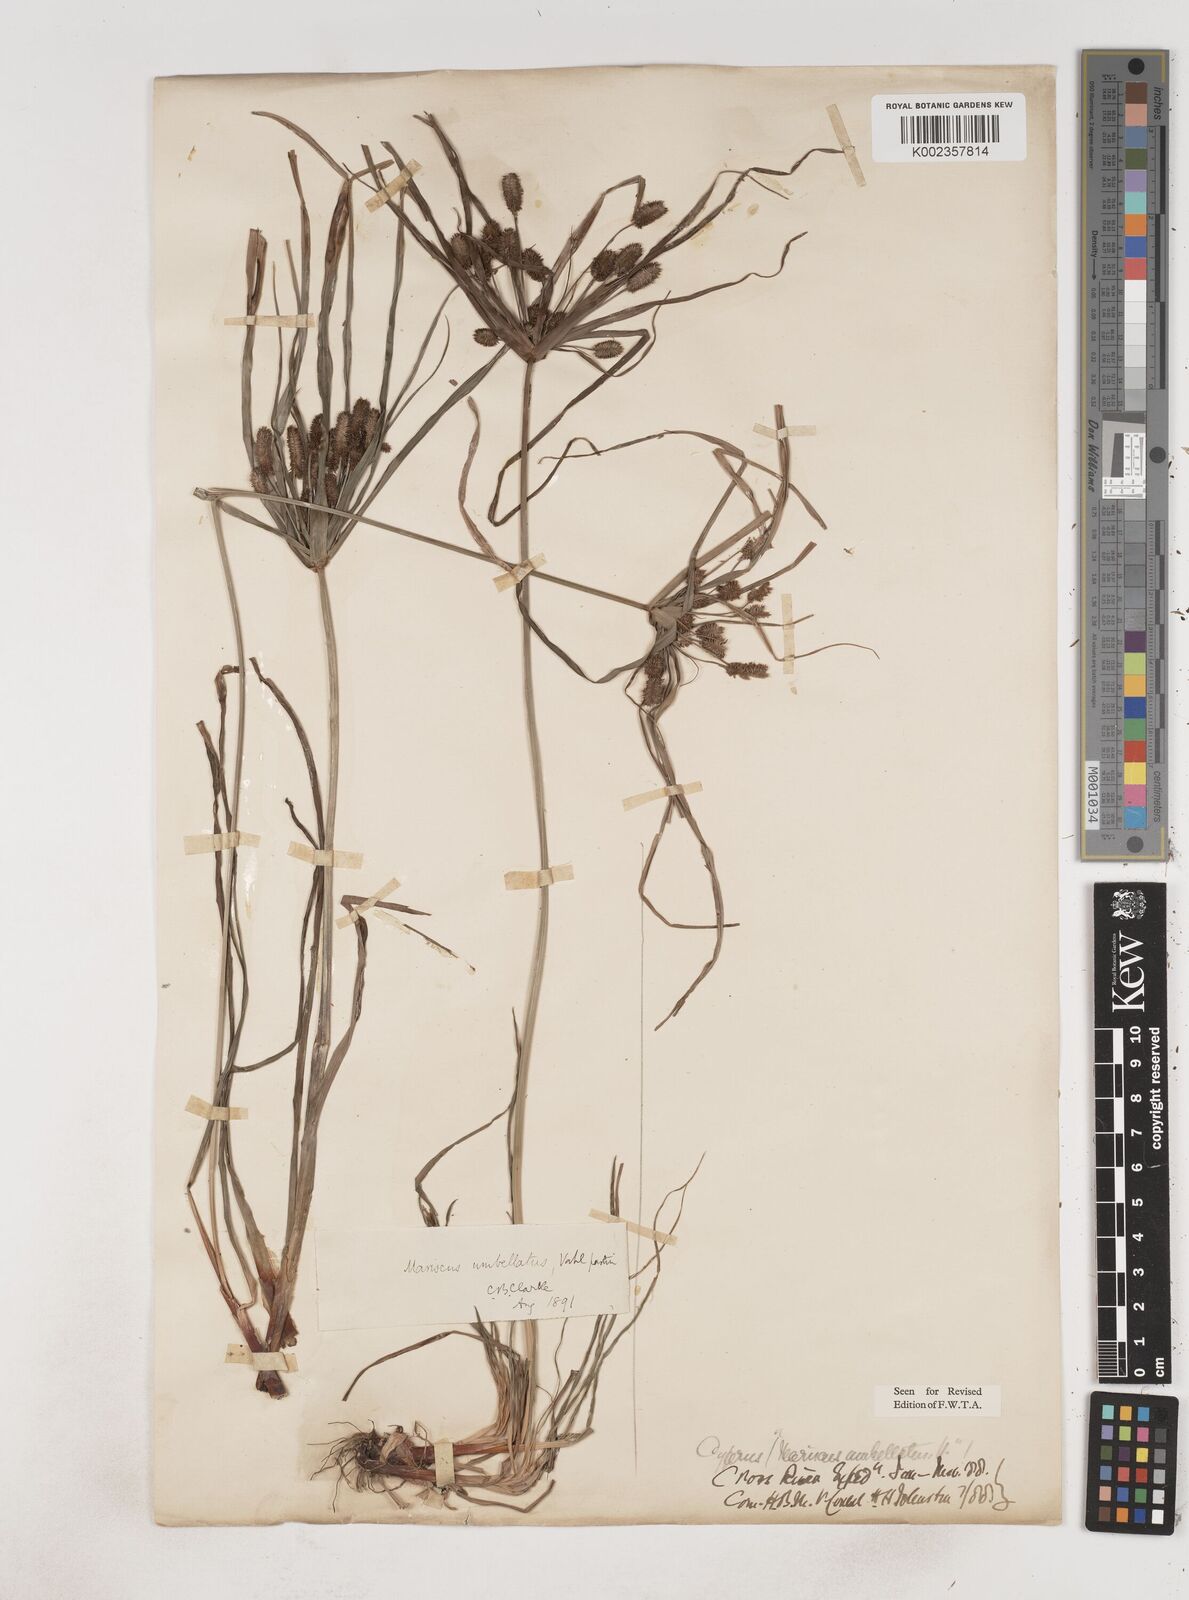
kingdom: Plantae
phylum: Tracheophyta
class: Liliopsida
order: Poales
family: Cyperaceae
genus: Cyperus
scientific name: Cyperus sublimis
